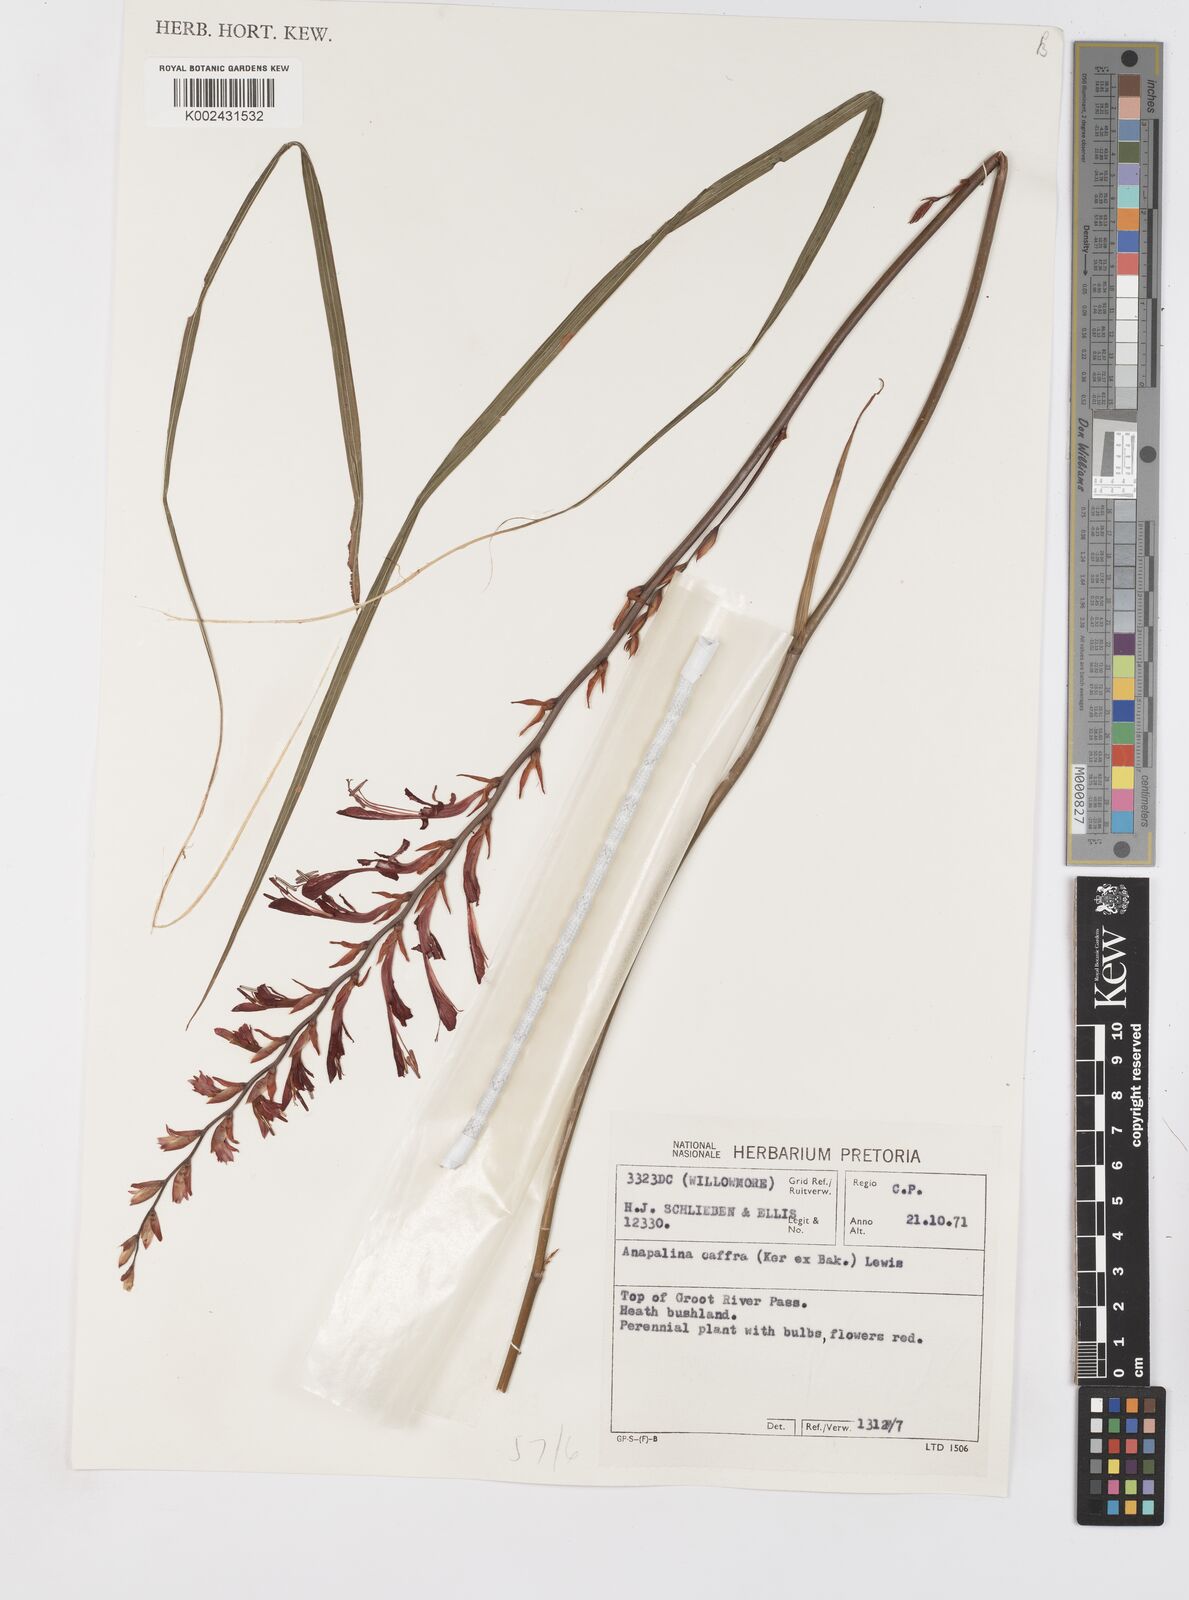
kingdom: Plantae
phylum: Tracheophyta
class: Liliopsida
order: Asparagales
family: Iridaceae
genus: Tritoniopsis
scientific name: Tritoniopsis caffra
